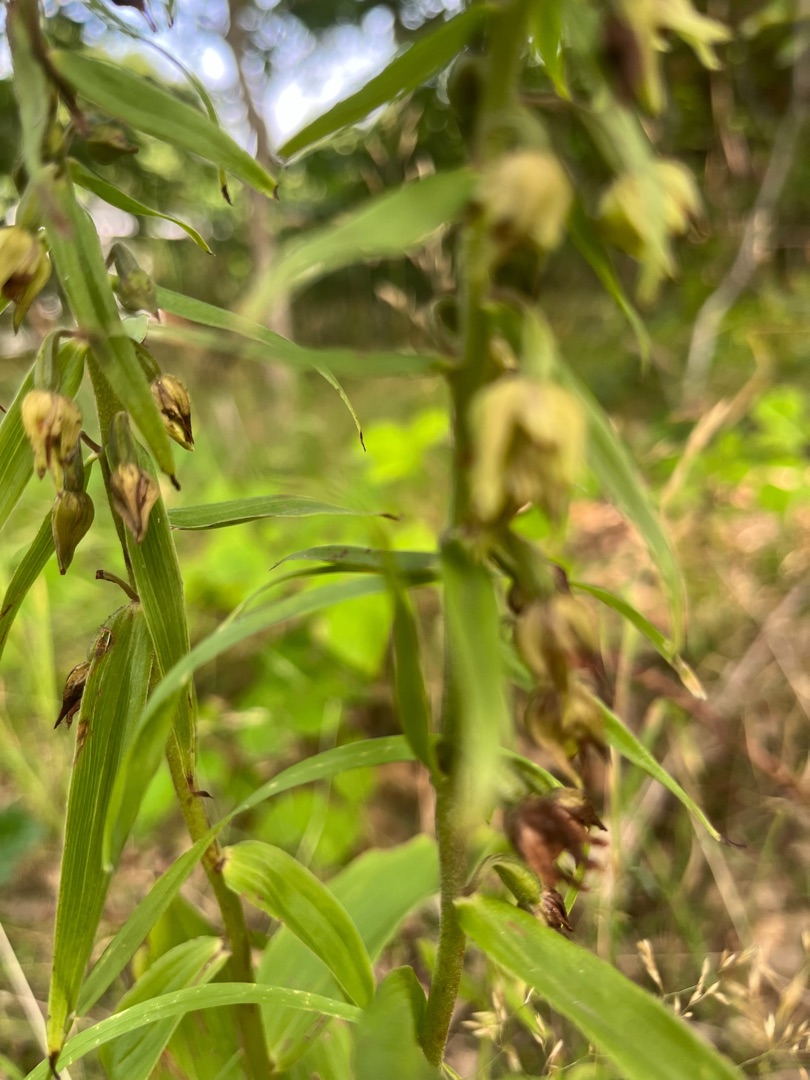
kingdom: Plantae
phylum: Tracheophyta
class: Liliopsida
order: Asparagales
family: Orchidaceae
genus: Epipactis
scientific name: Epipactis helleborine
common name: Skov-hullæbe
